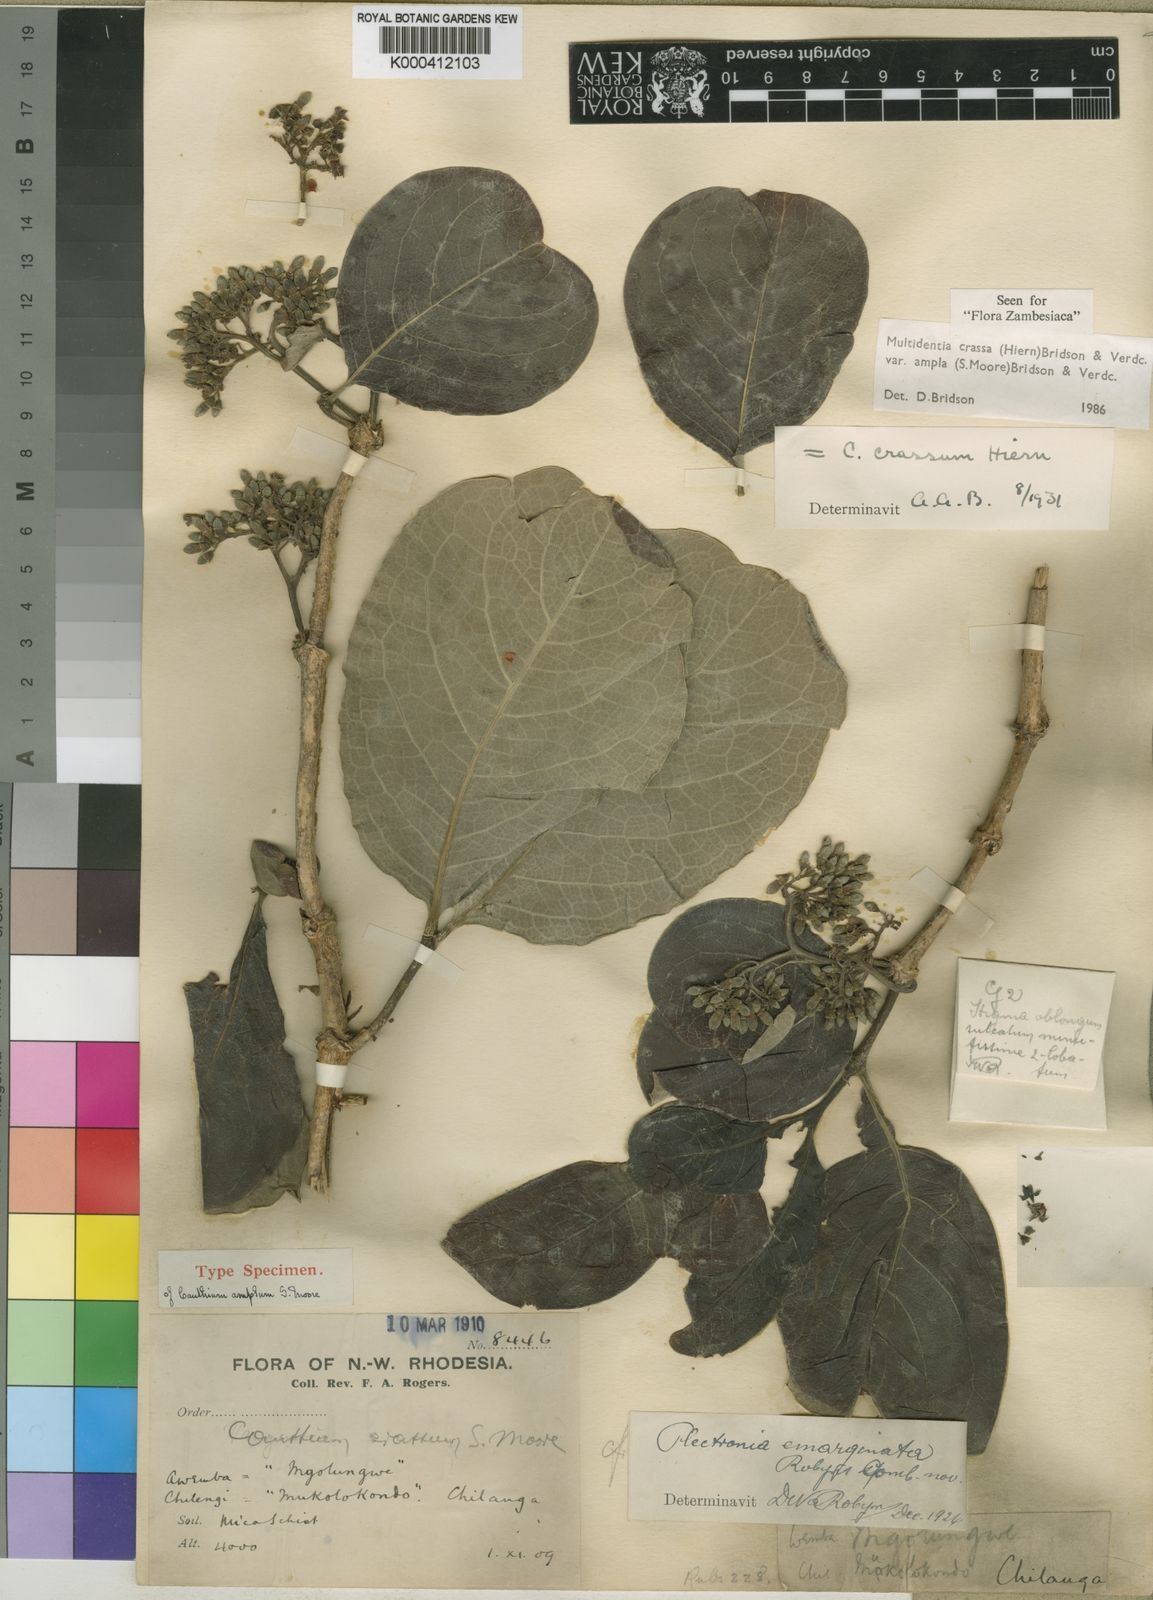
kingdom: Plantae
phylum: Tracheophyta
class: Magnoliopsida
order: Gentianales
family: Rubiaceae
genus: Multidentia
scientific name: Multidentia crassa
